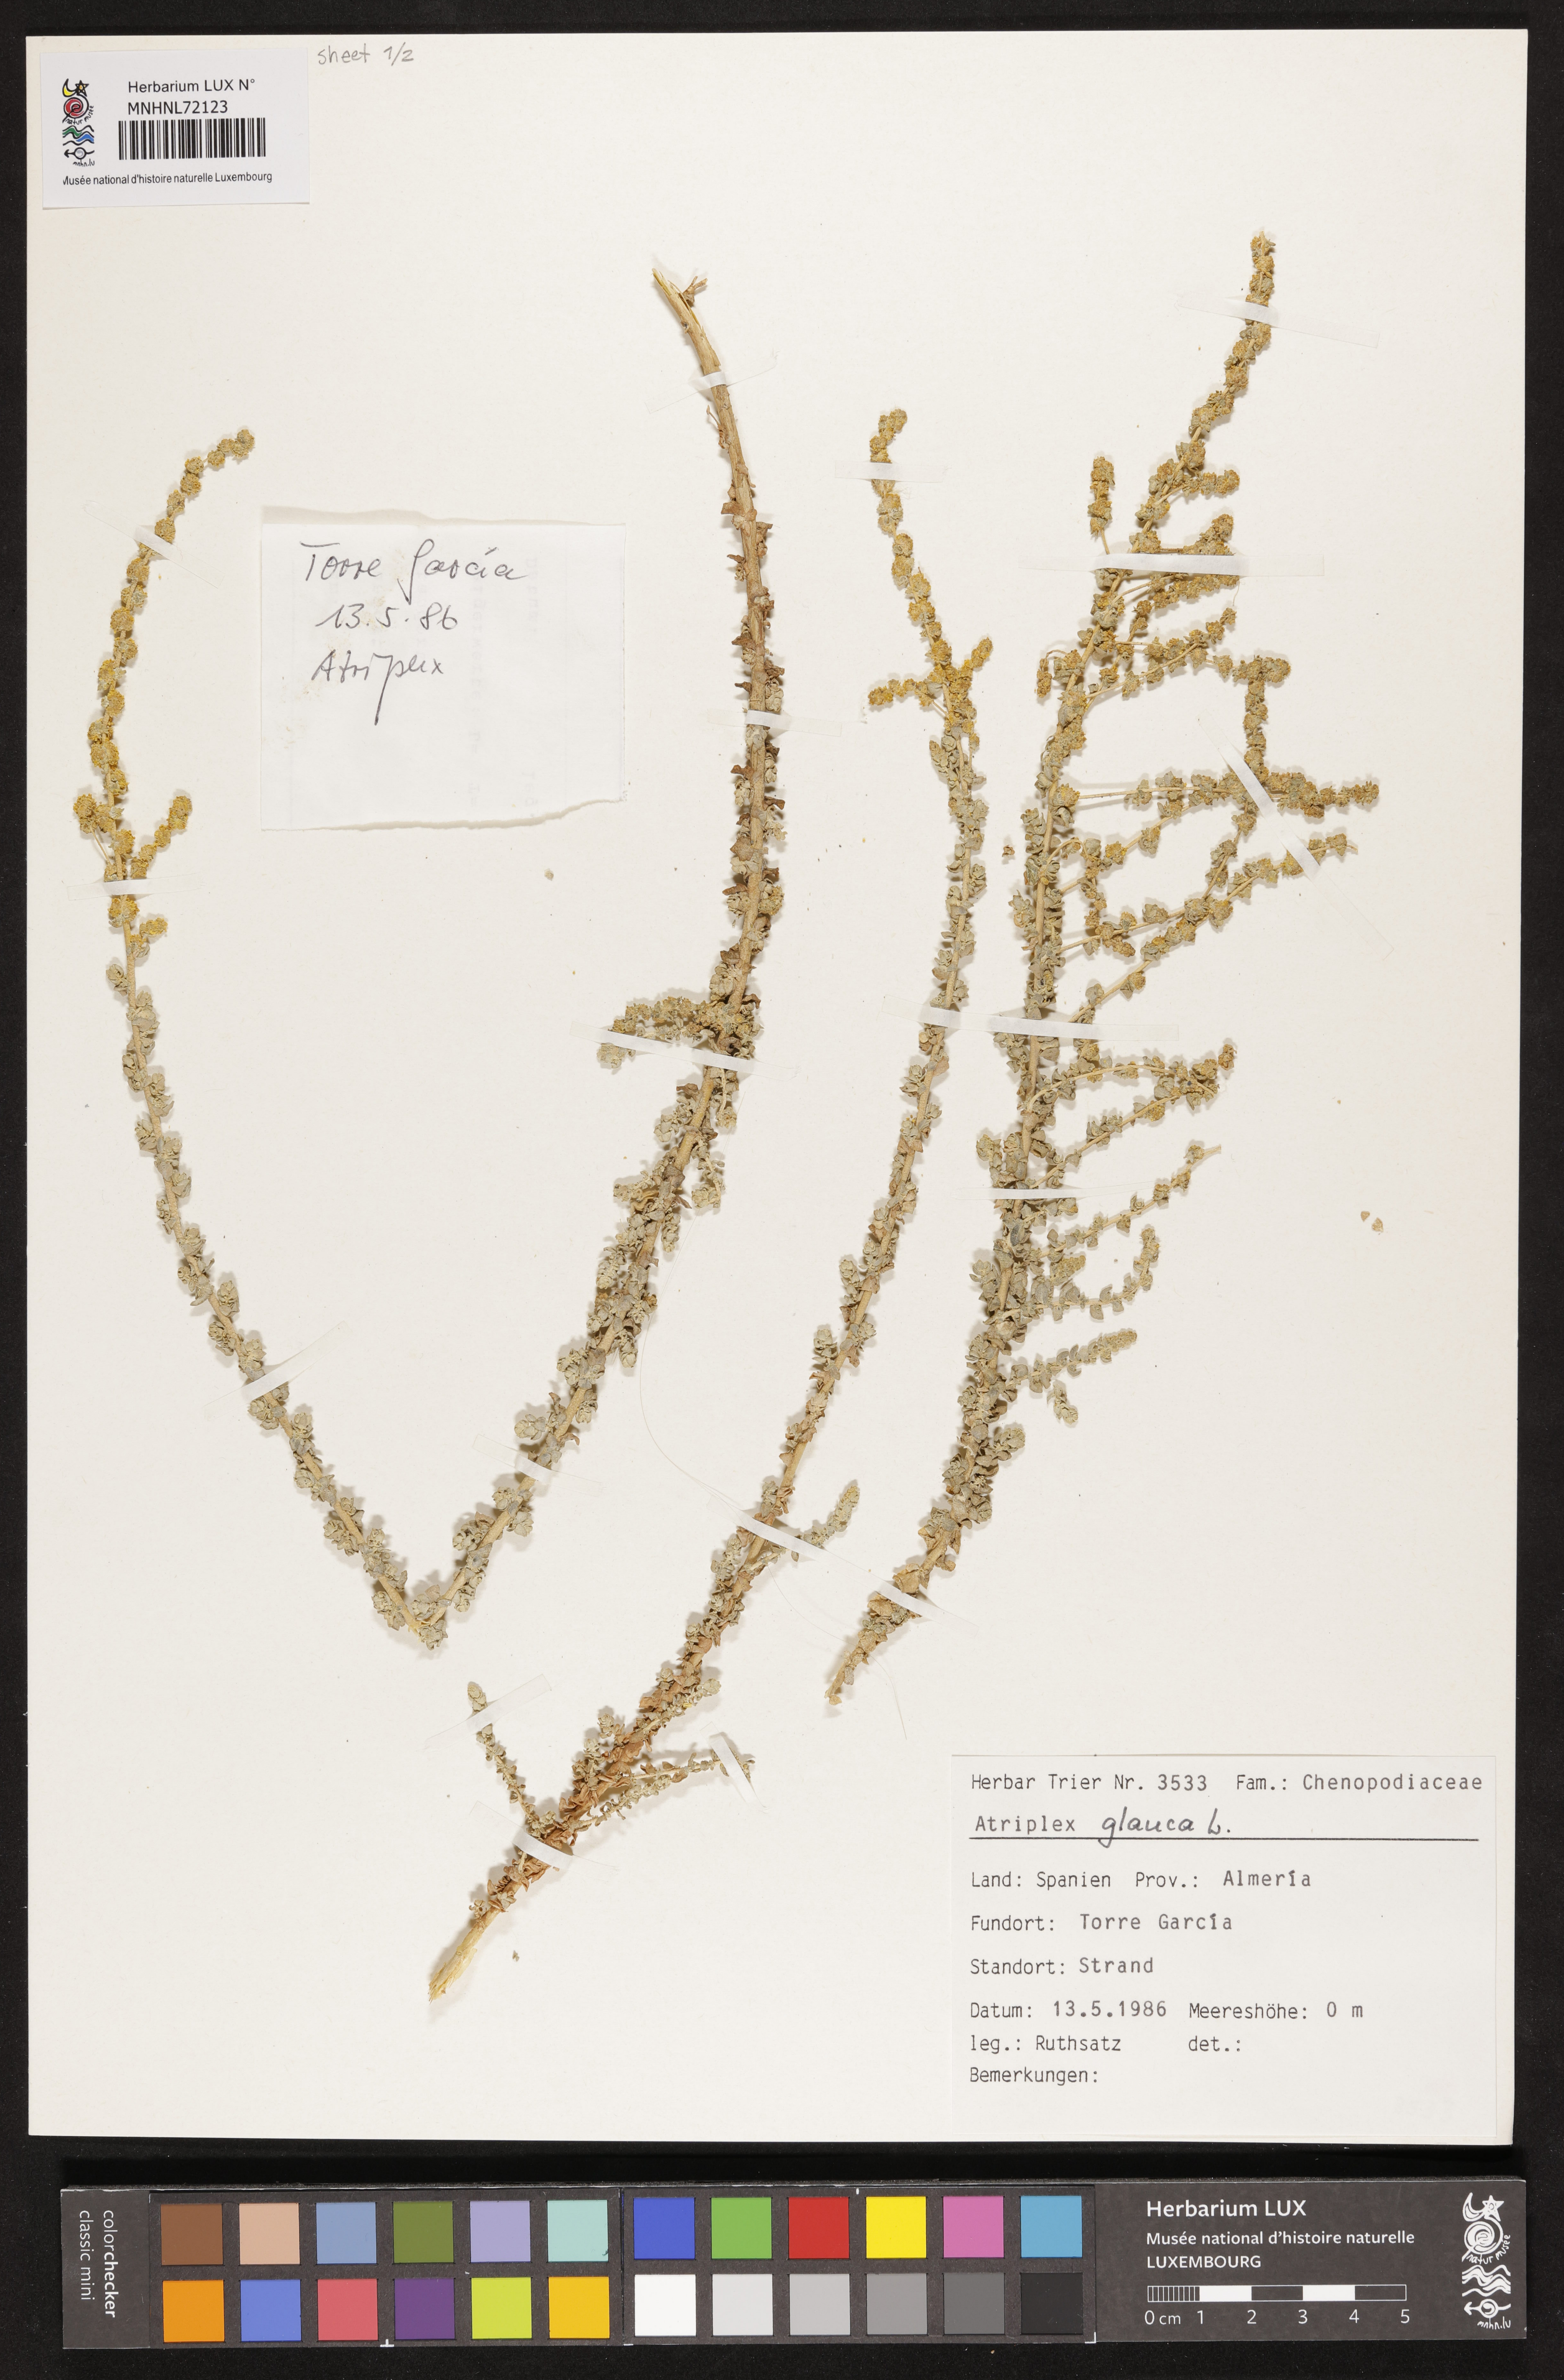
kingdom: Plantae
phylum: Tracheophyta
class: Magnoliopsida
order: Caryophyllales
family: Amaranthaceae
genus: Atriplex
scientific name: Atriplex glauca
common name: Waxy saltbush
